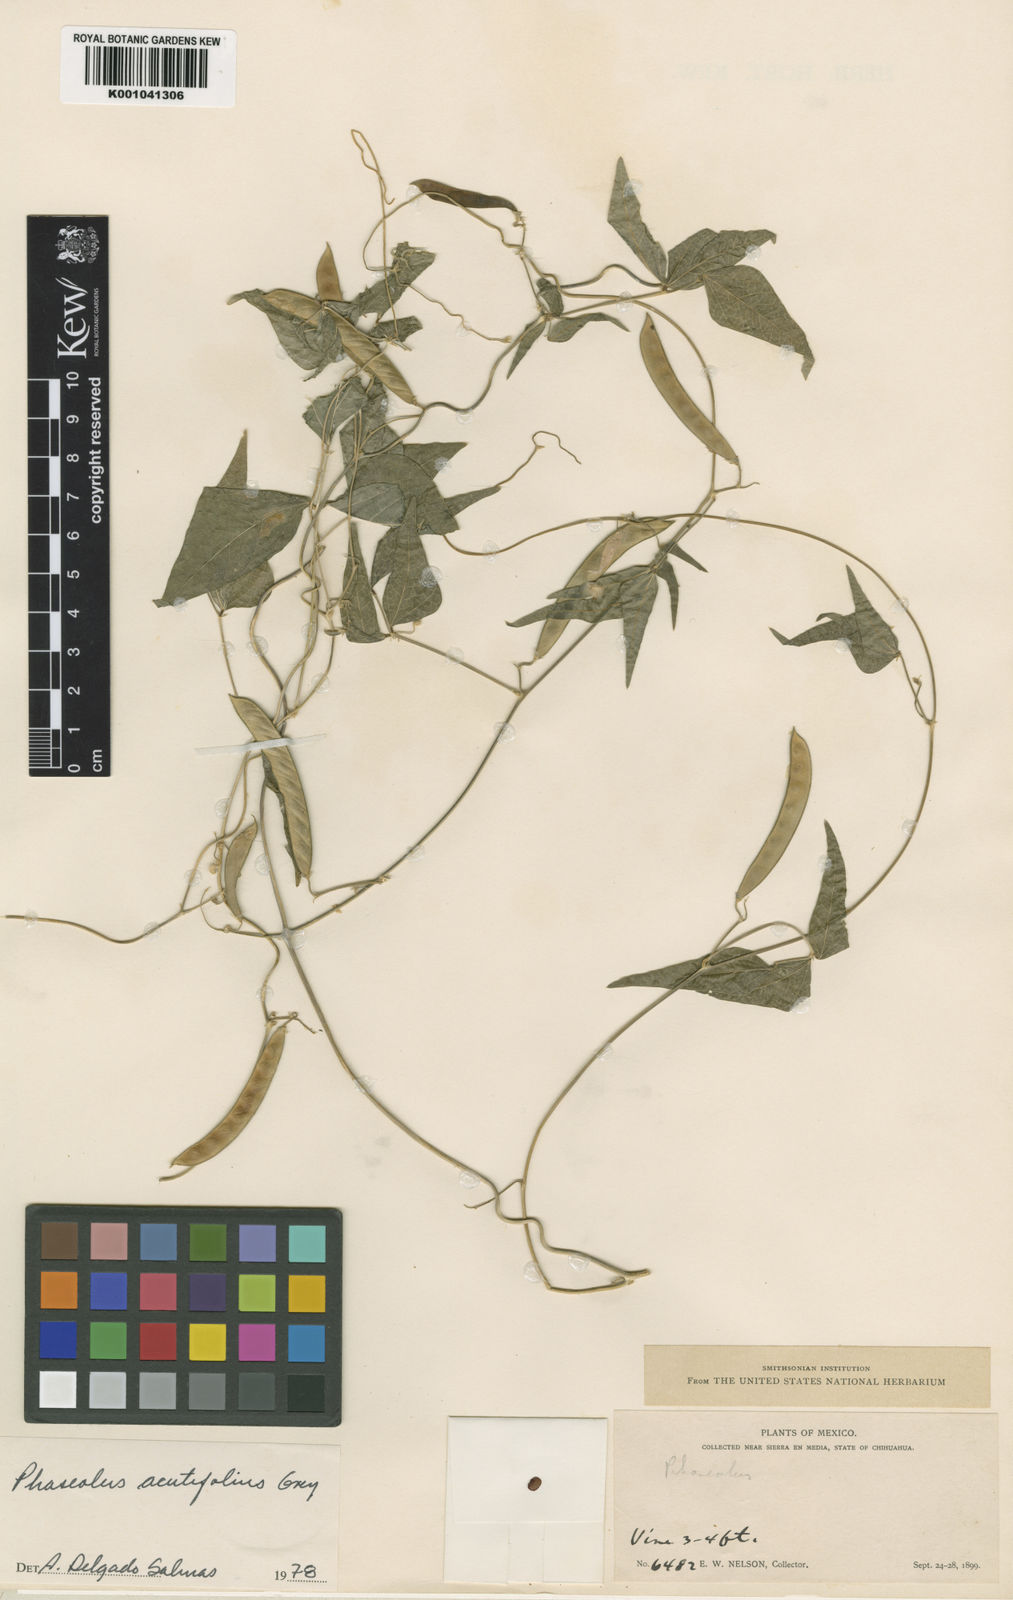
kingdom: Plantae
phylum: Tracheophyta
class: Magnoliopsida
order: Fabales
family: Fabaceae
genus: Phaseolus
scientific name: Phaseolus acutifolius
